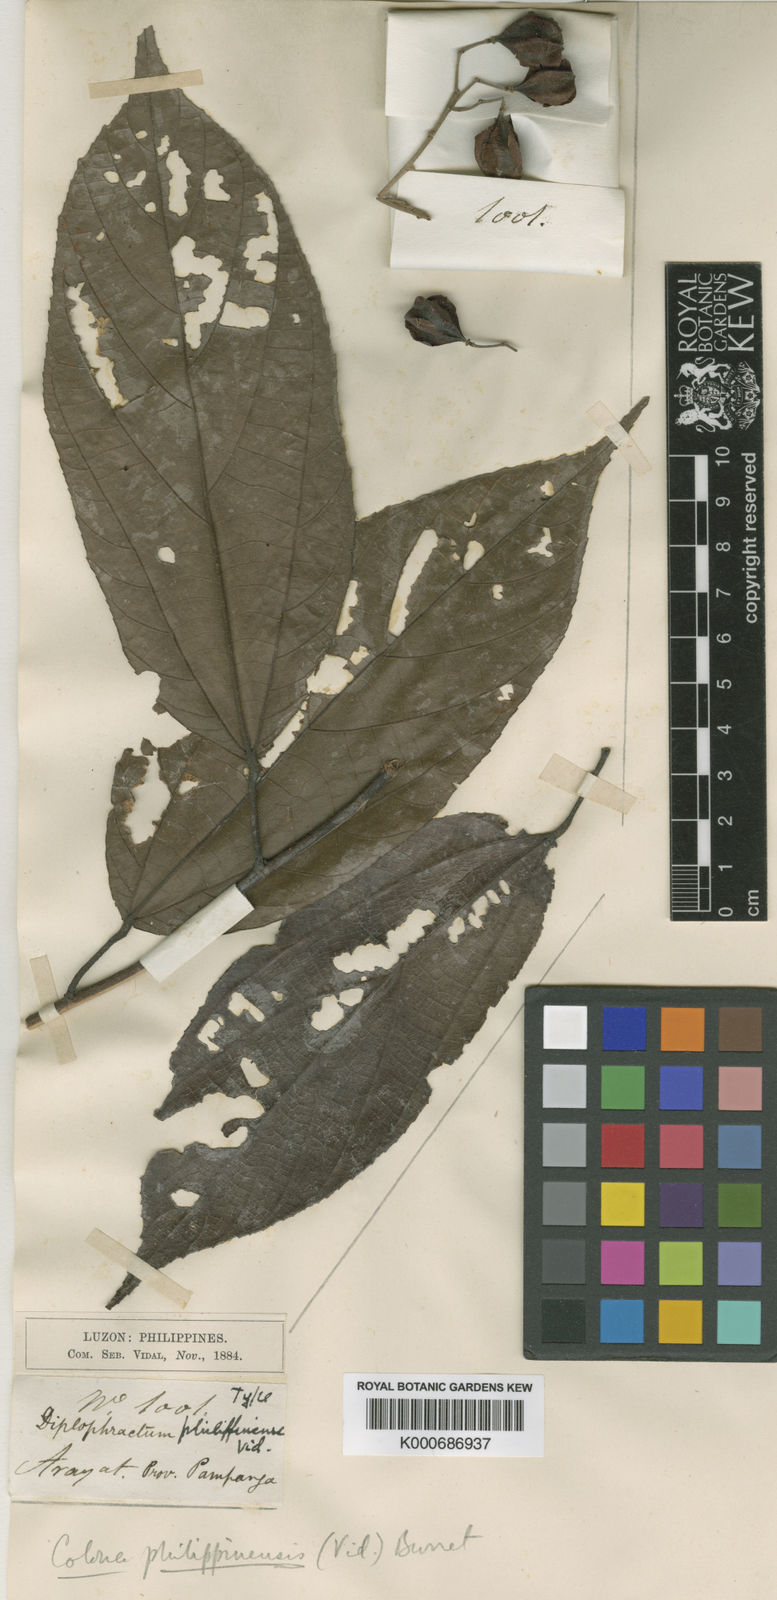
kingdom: Plantae
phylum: Tracheophyta
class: Magnoliopsida
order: Malvales
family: Malvaceae
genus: Colona
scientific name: Colona philippinensis
